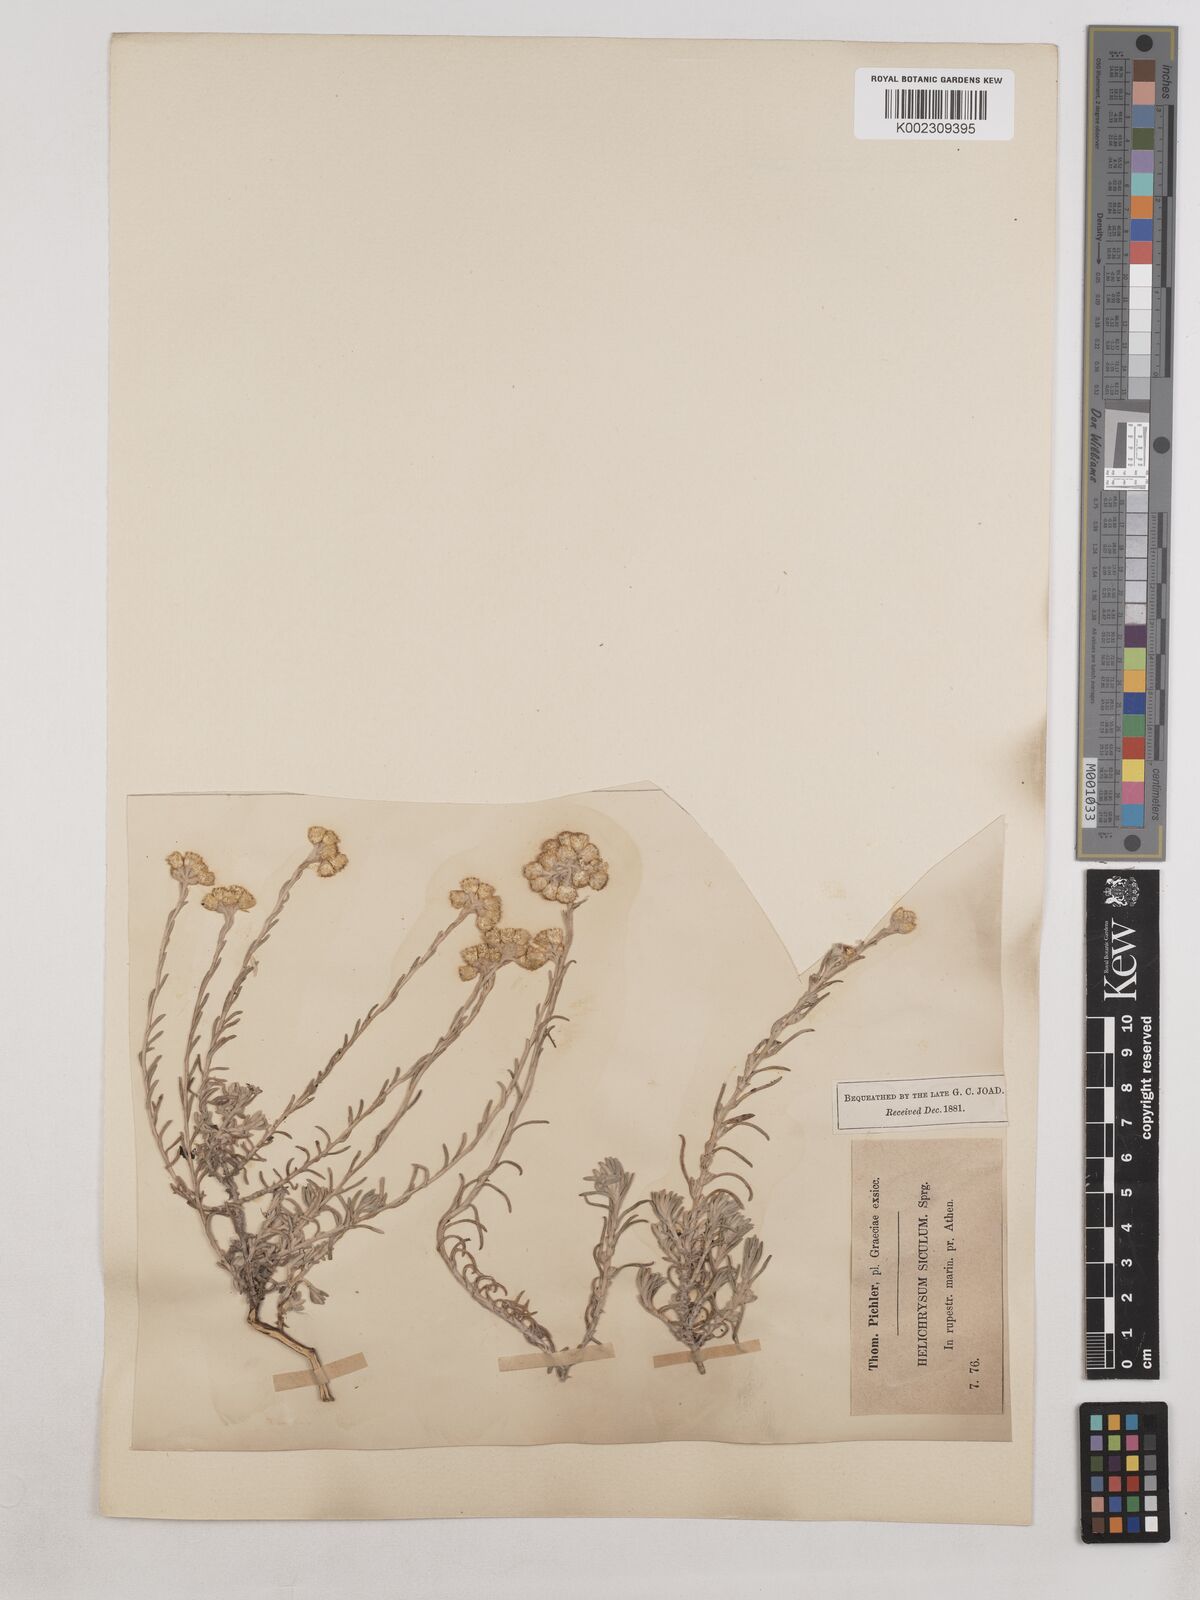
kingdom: Plantae
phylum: Tracheophyta
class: Magnoliopsida
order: Asterales
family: Asteraceae
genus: Helichrysum
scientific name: Helichrysum stoechas
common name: Goldilocks
